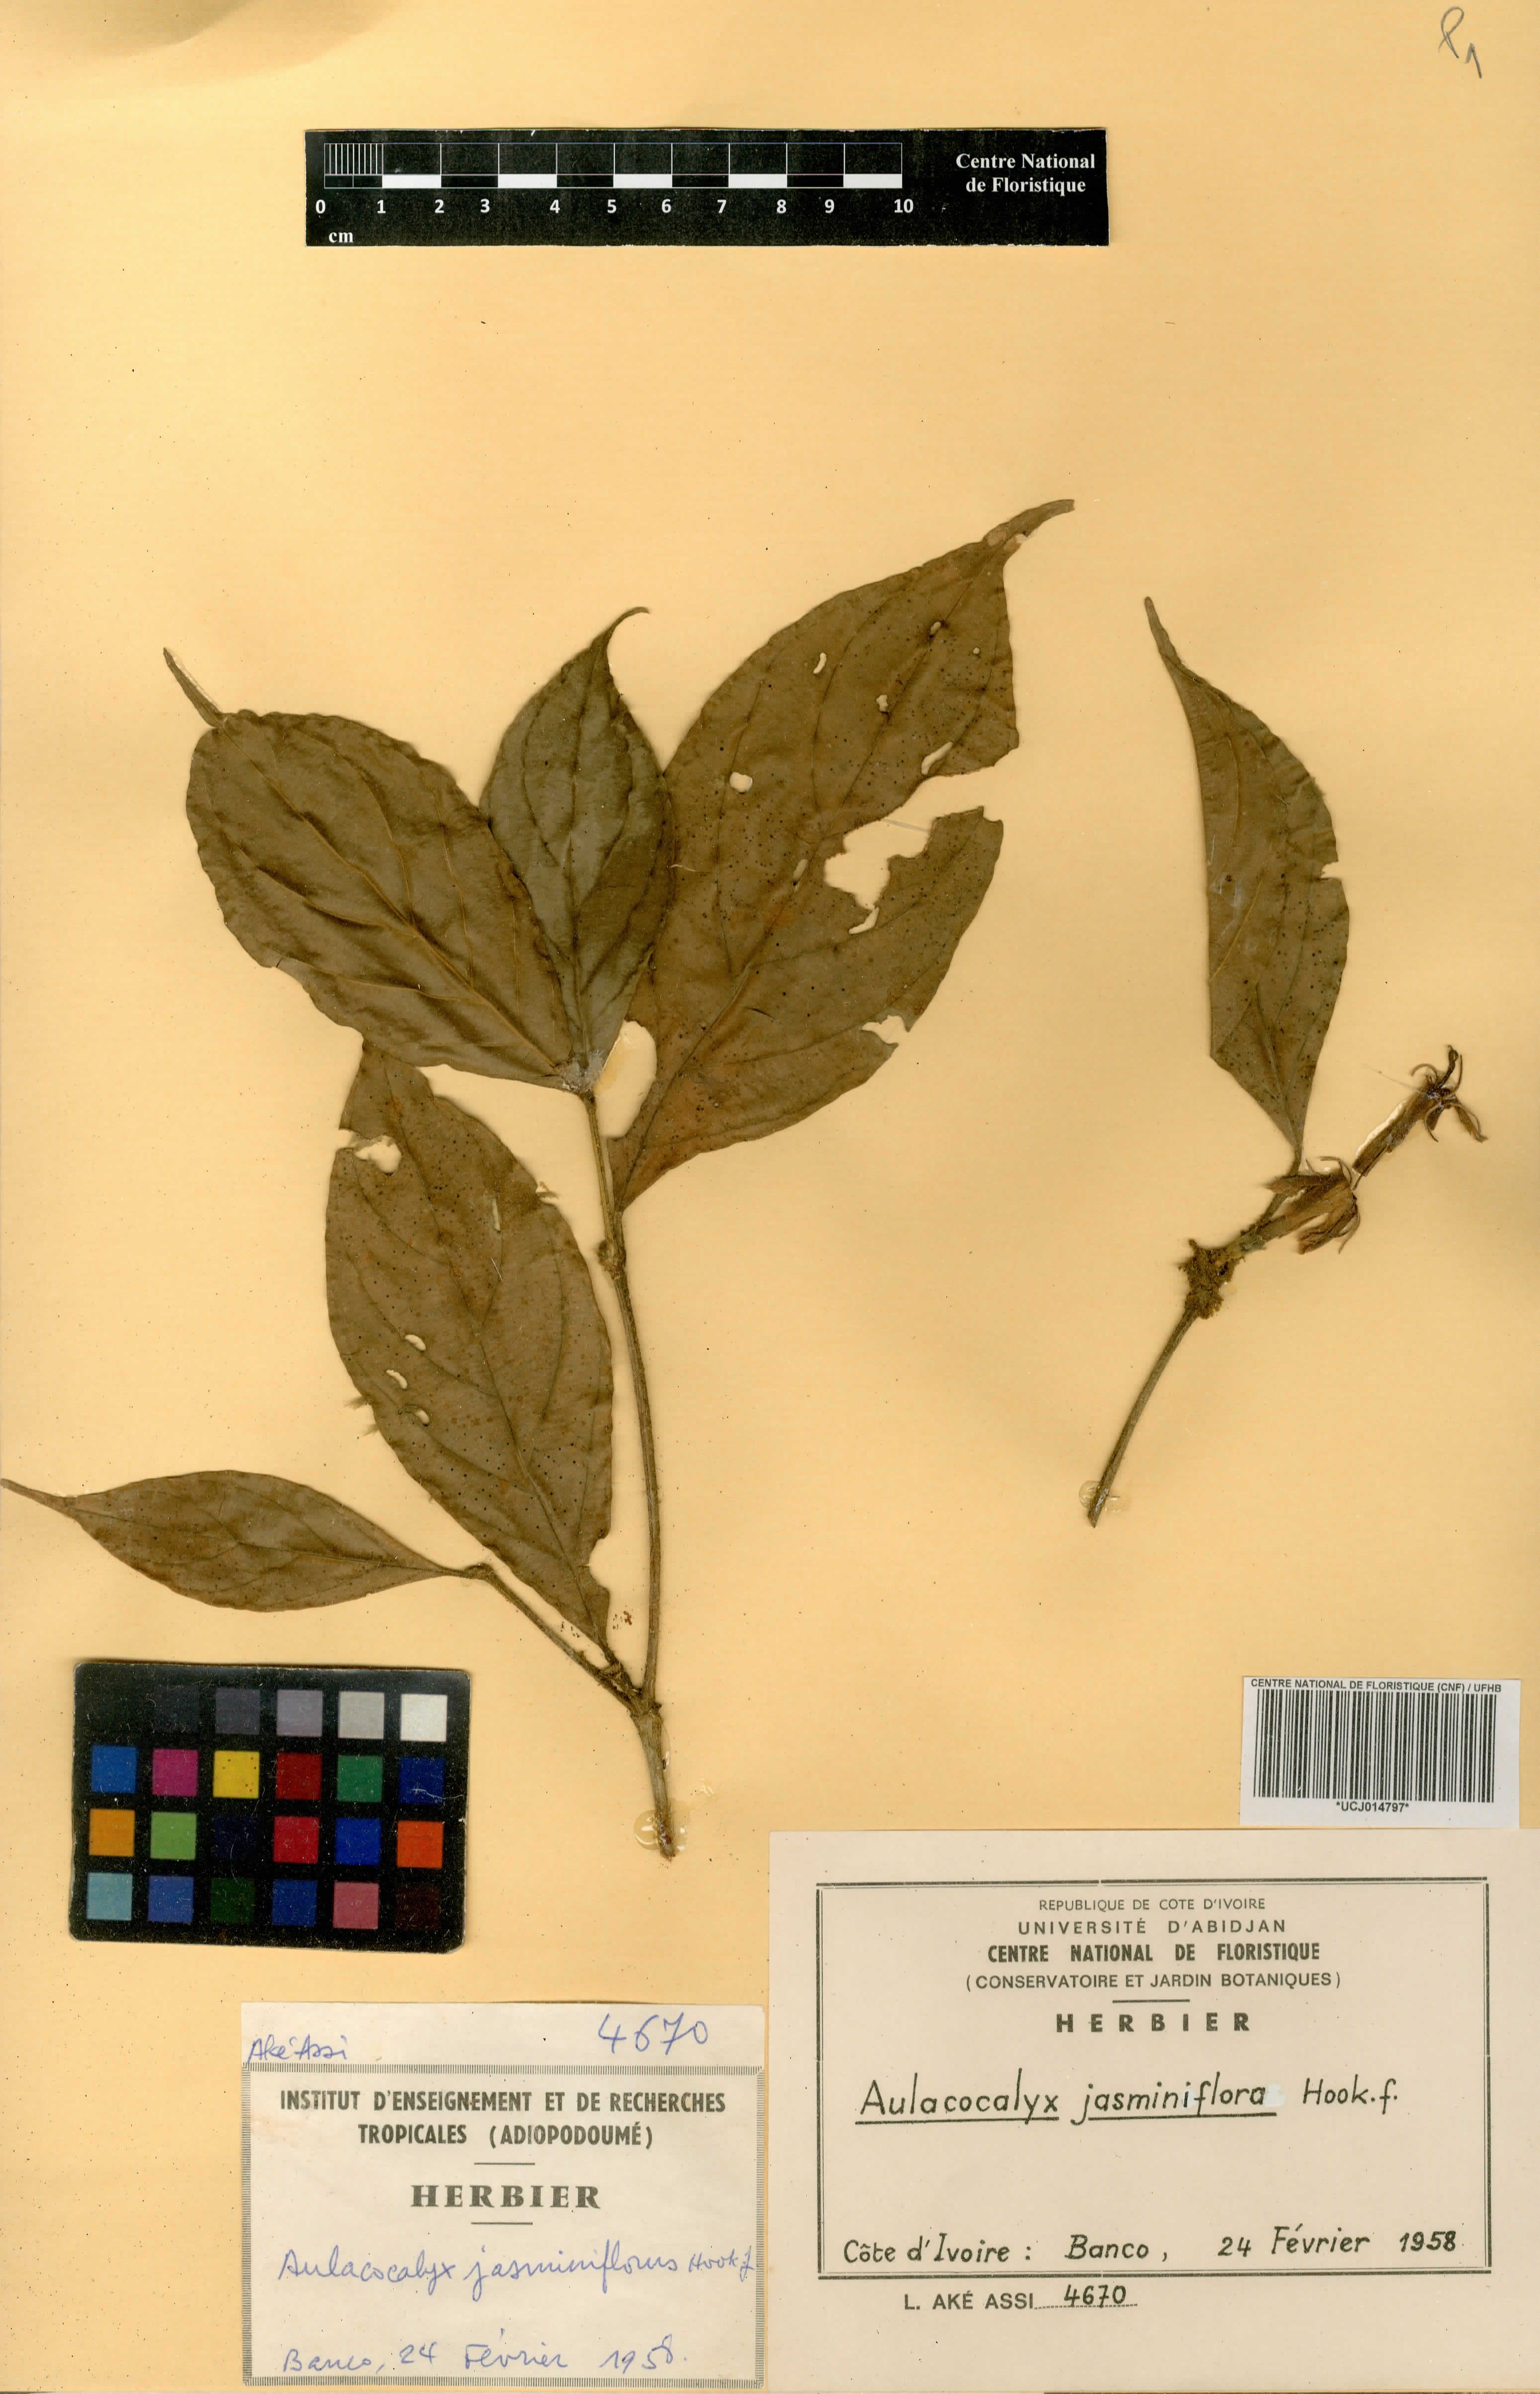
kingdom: Plantae
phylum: Tracheophyta
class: Magnoliopsida
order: Gentianales
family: Rubiaceae
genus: Aulacocalyx
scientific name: Aulacocalyx jasminiflora
